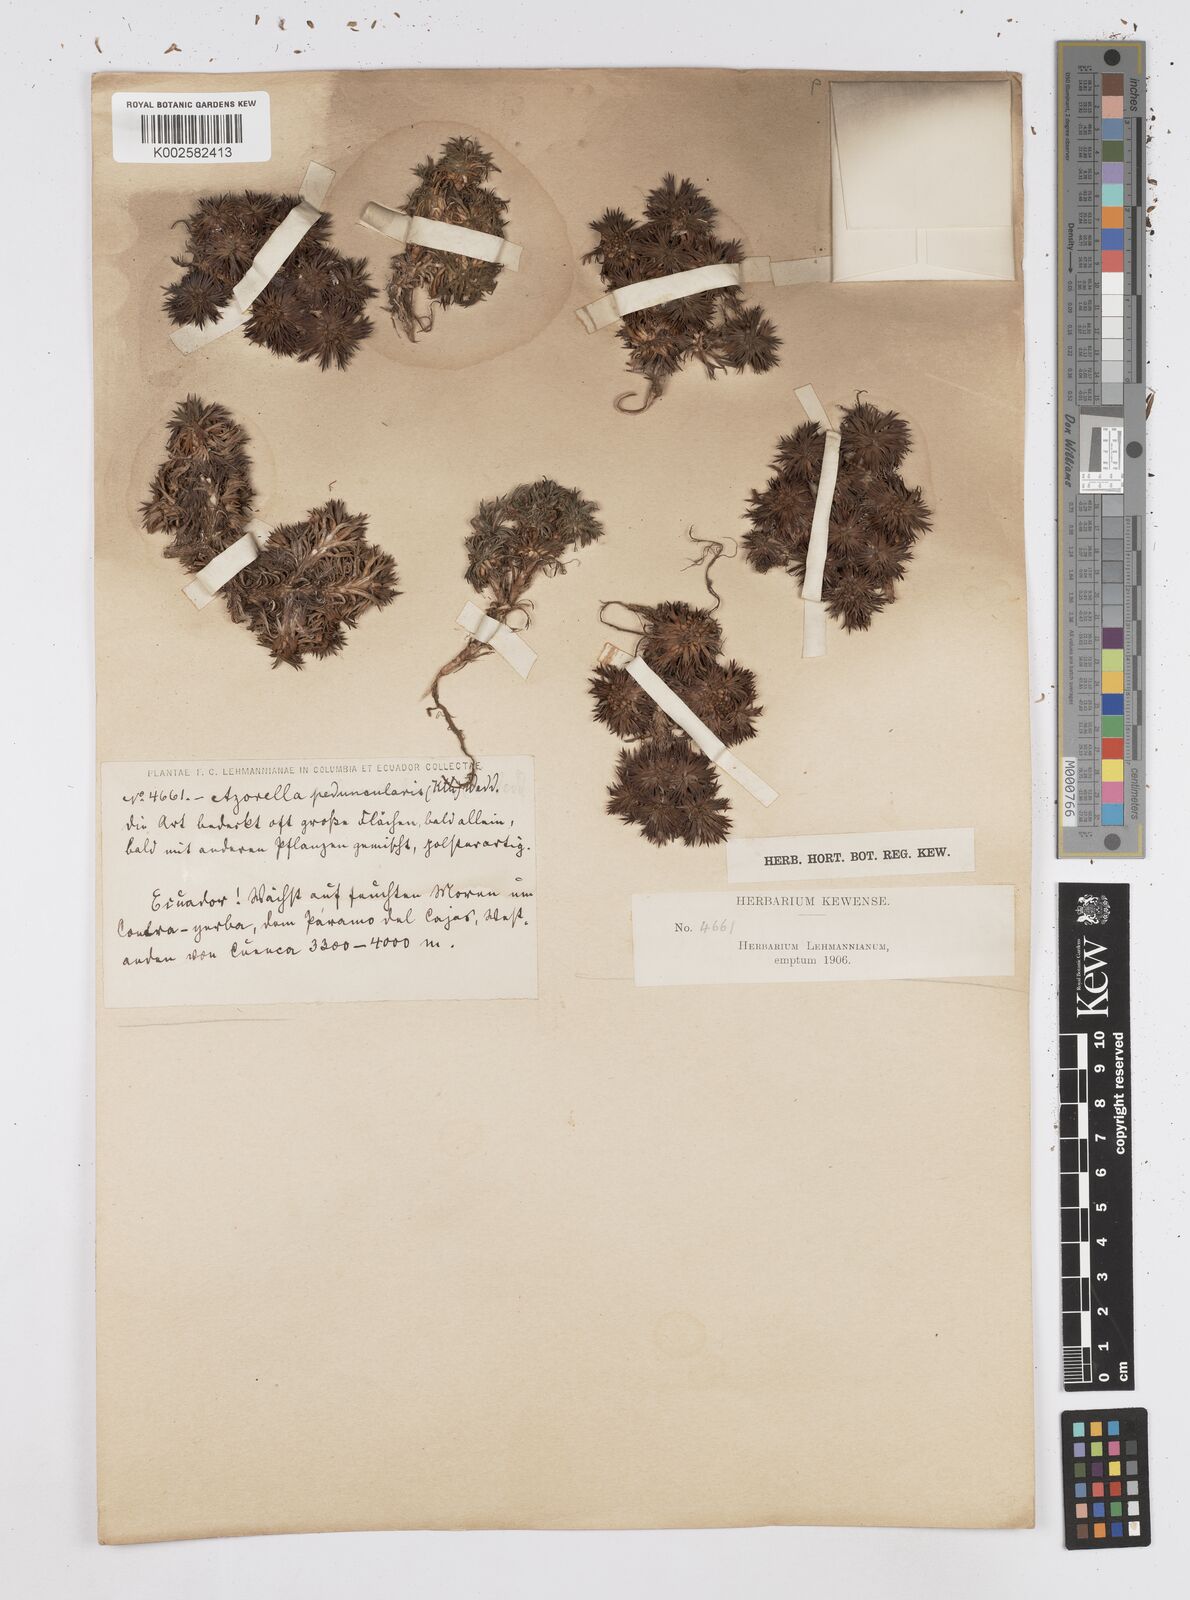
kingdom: Plantae
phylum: Tracheophyta
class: Magnoliopsida
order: Apiales
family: Apiaceae
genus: Azorella
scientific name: Azorella pedunculata
